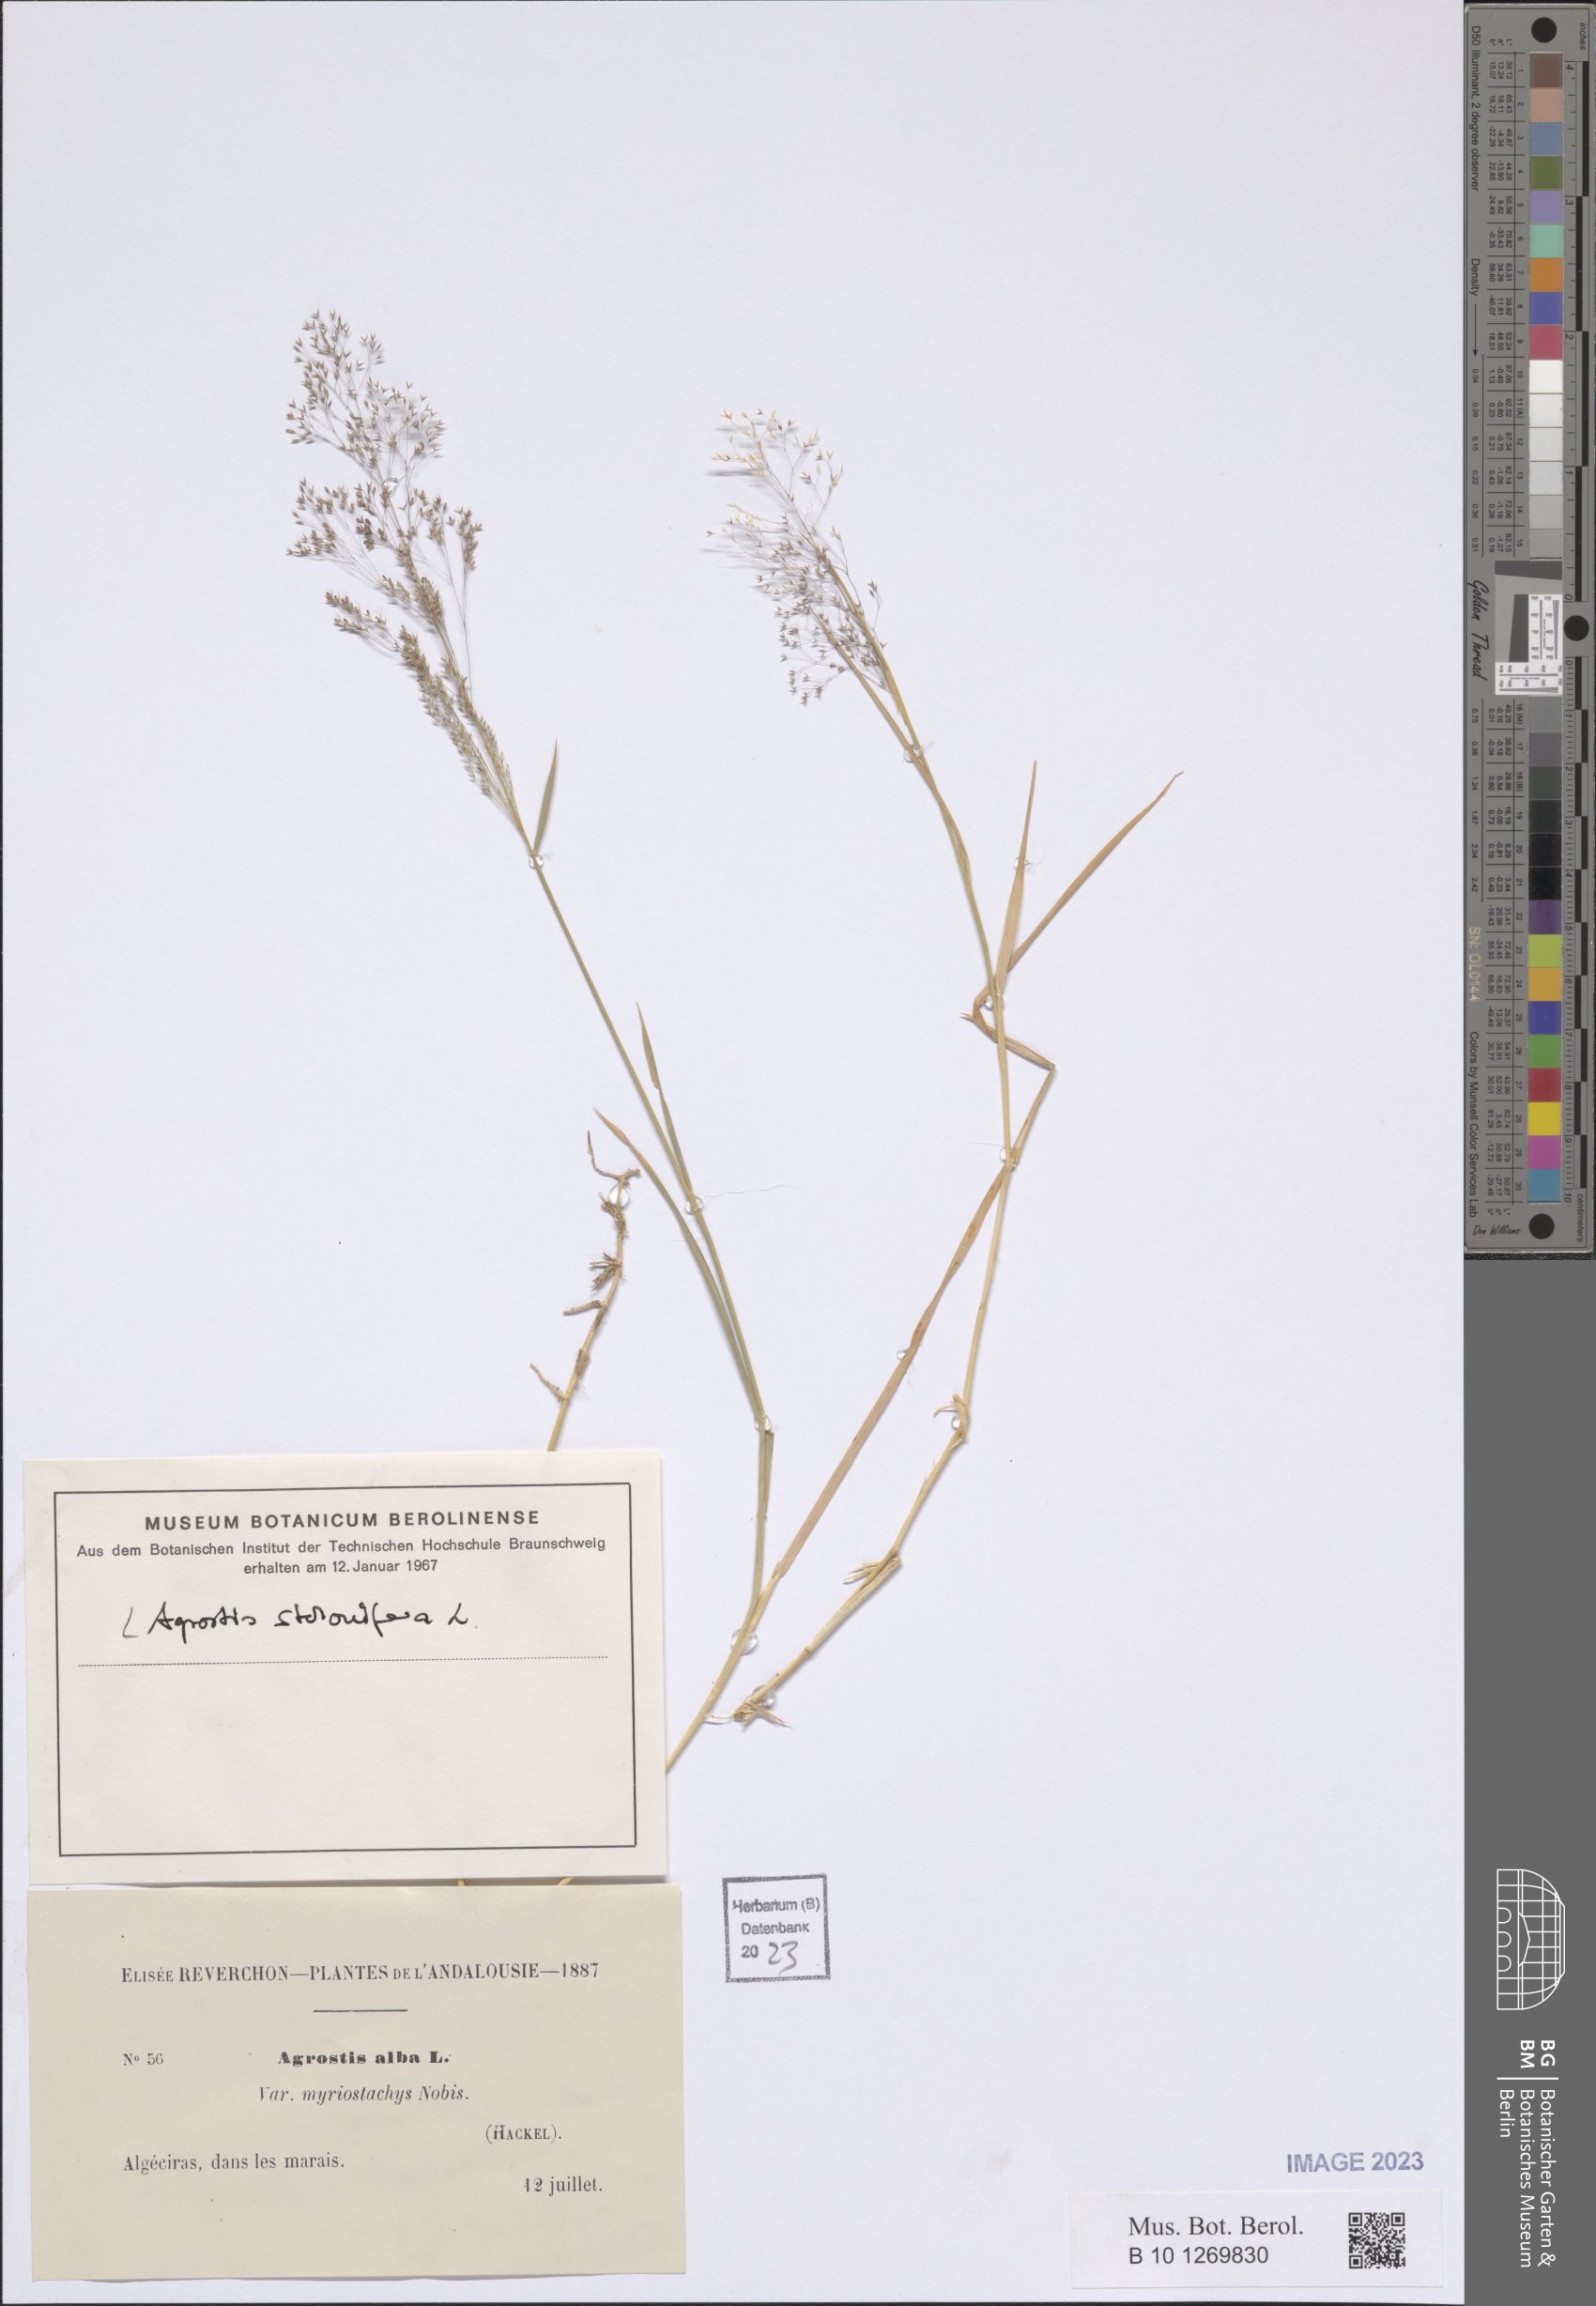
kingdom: Plantae
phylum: Tracheophyta
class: Liliopsida
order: Poales
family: Poaceae
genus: Agrostis
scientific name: Agrostis stolonifera
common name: Creeping bentgrass
